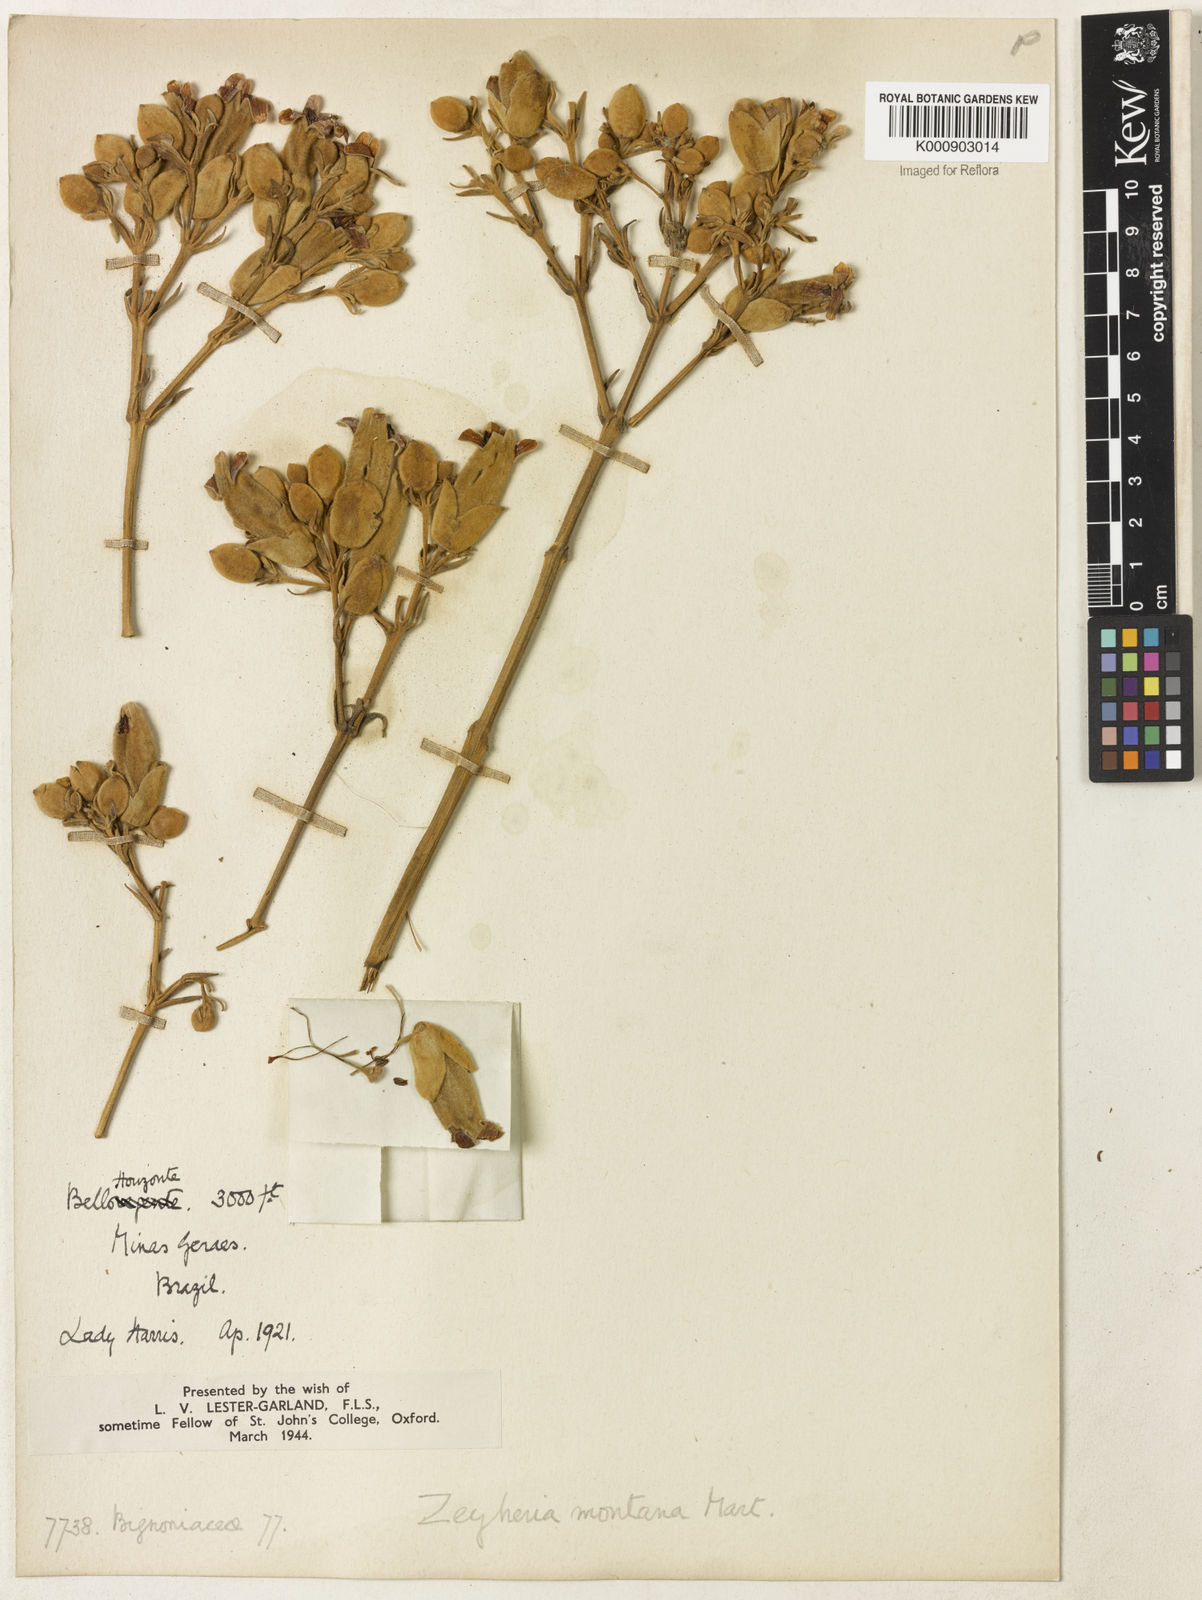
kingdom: Plantae
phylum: Tracheophyta
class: Magnoliopsida
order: Lamiales
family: Bignoniaceae
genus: Zeyheria
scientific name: Zeyheria montana
